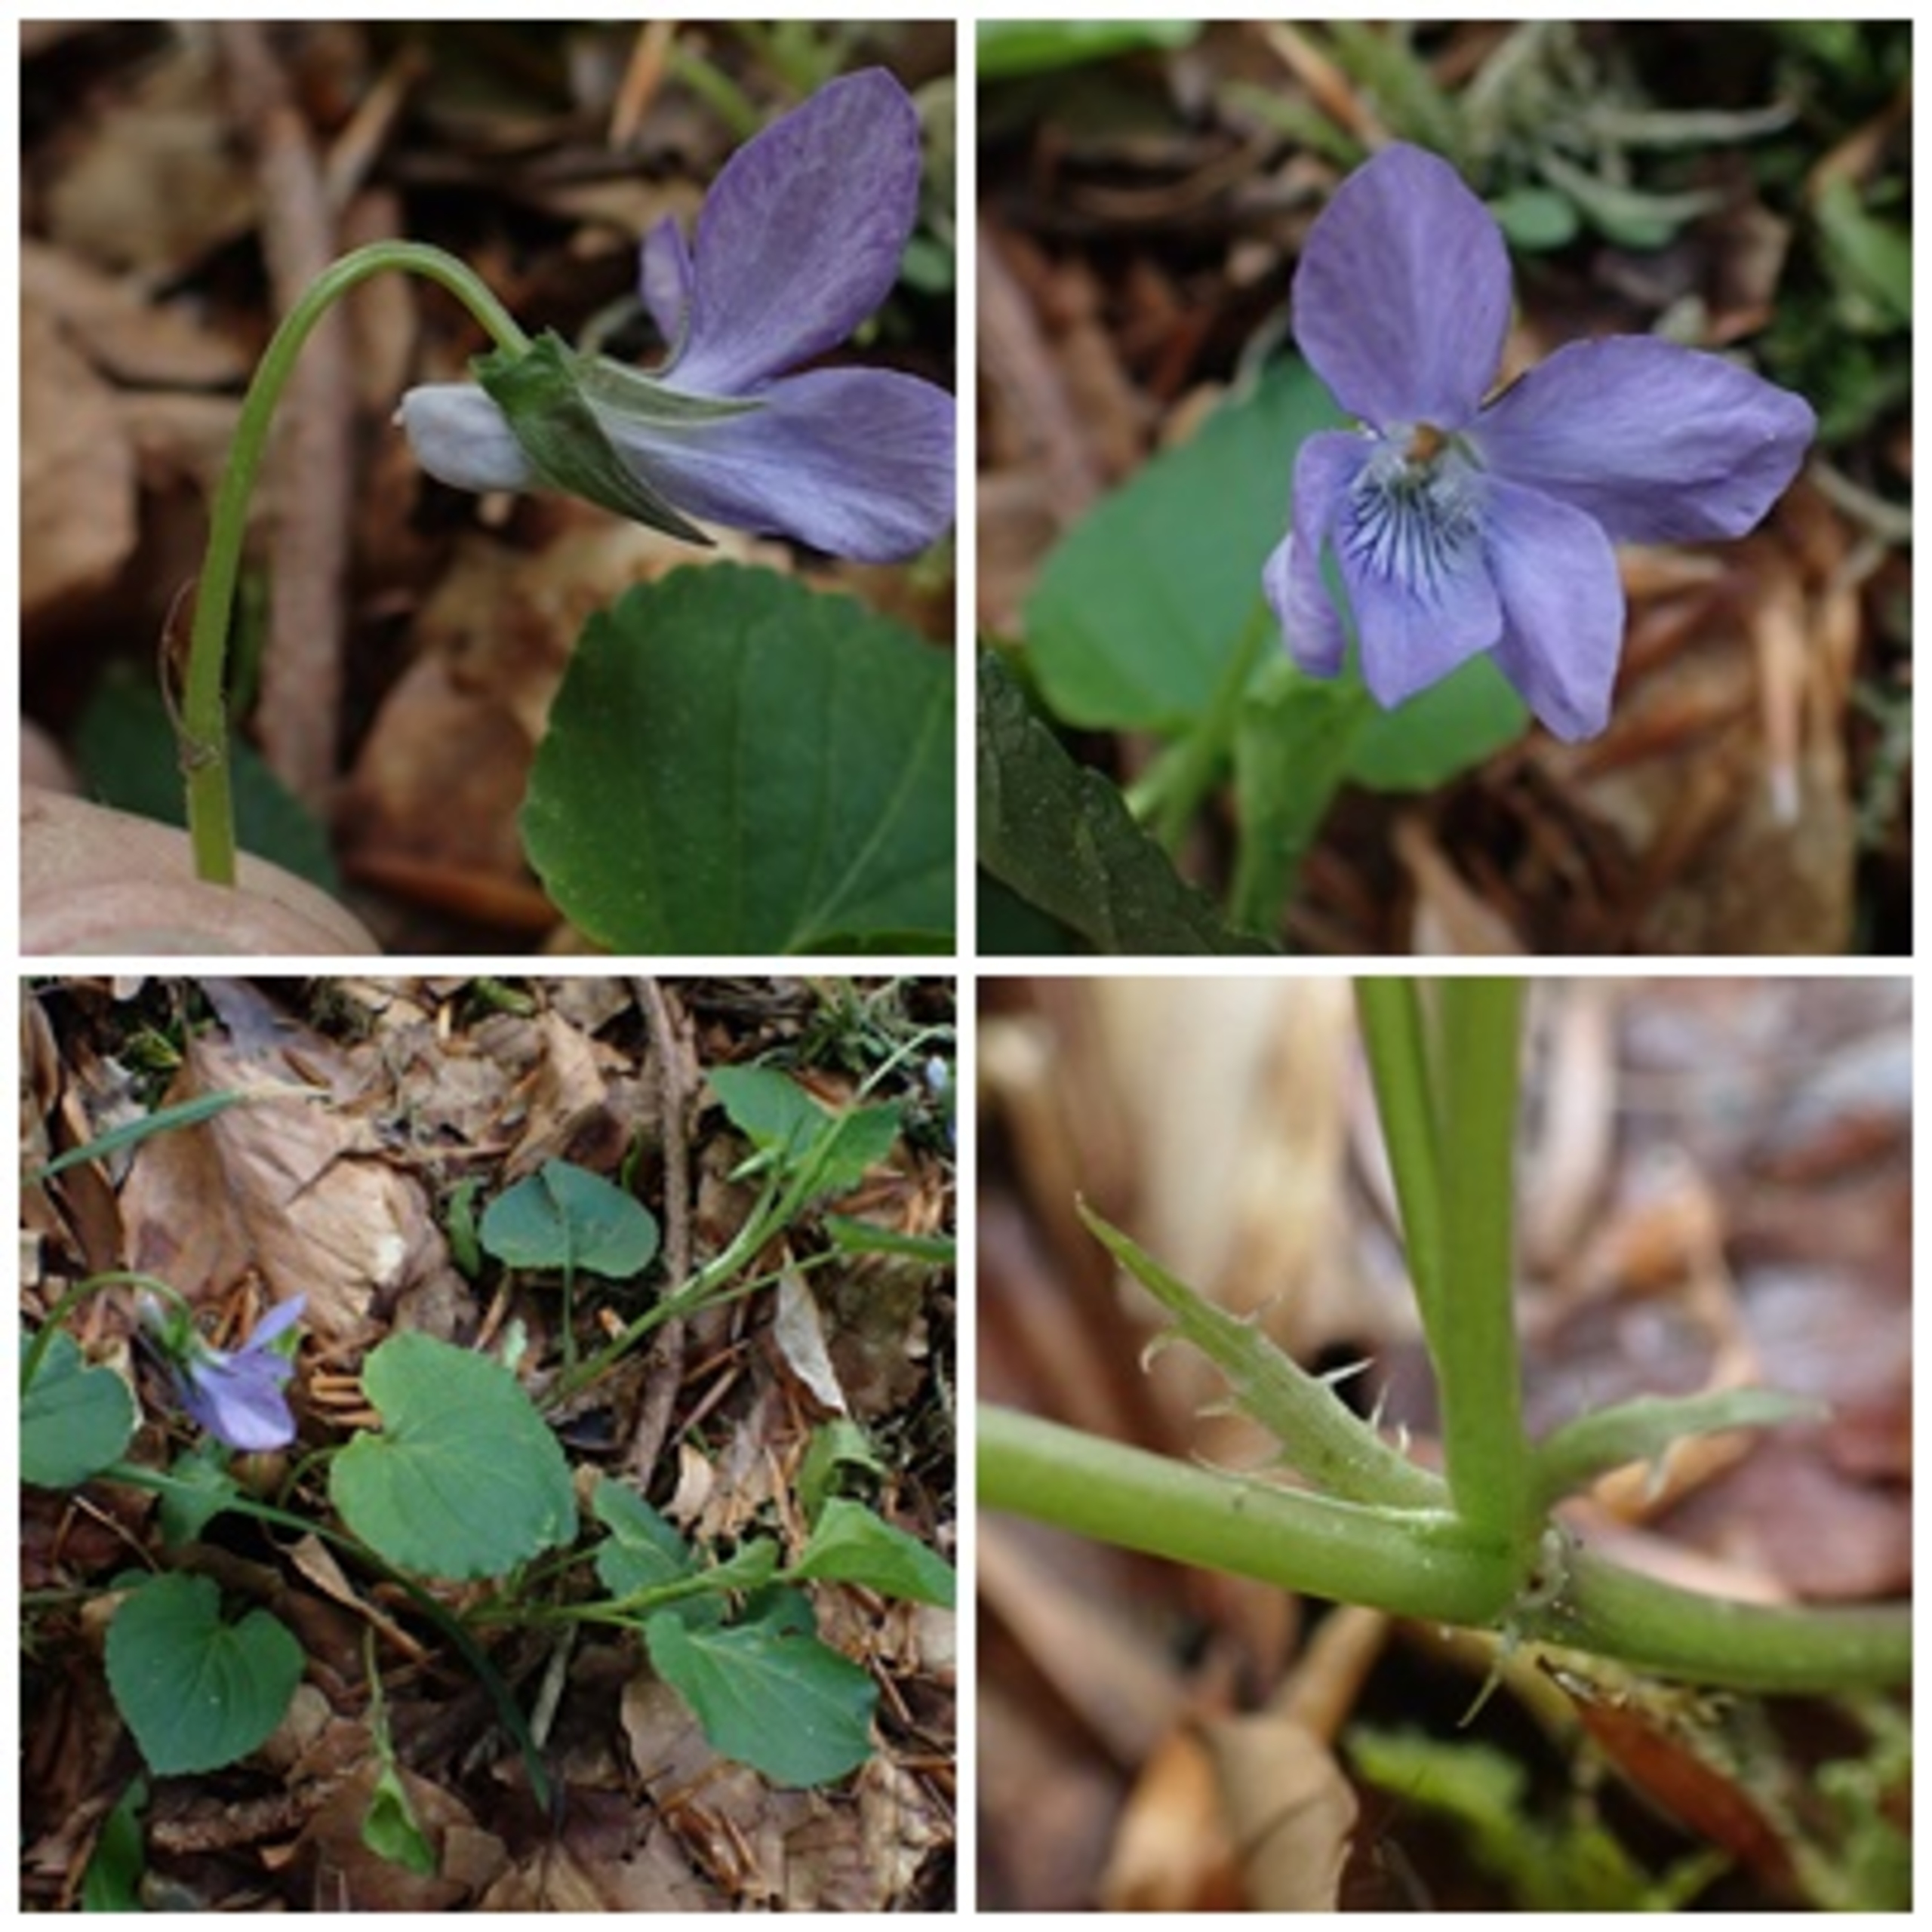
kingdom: Plantae
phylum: Tracheophyta
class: Magnoliopsida
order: Malpighiales
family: Violaceae
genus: Viola
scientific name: Viola riviniana
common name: Krat-viol
